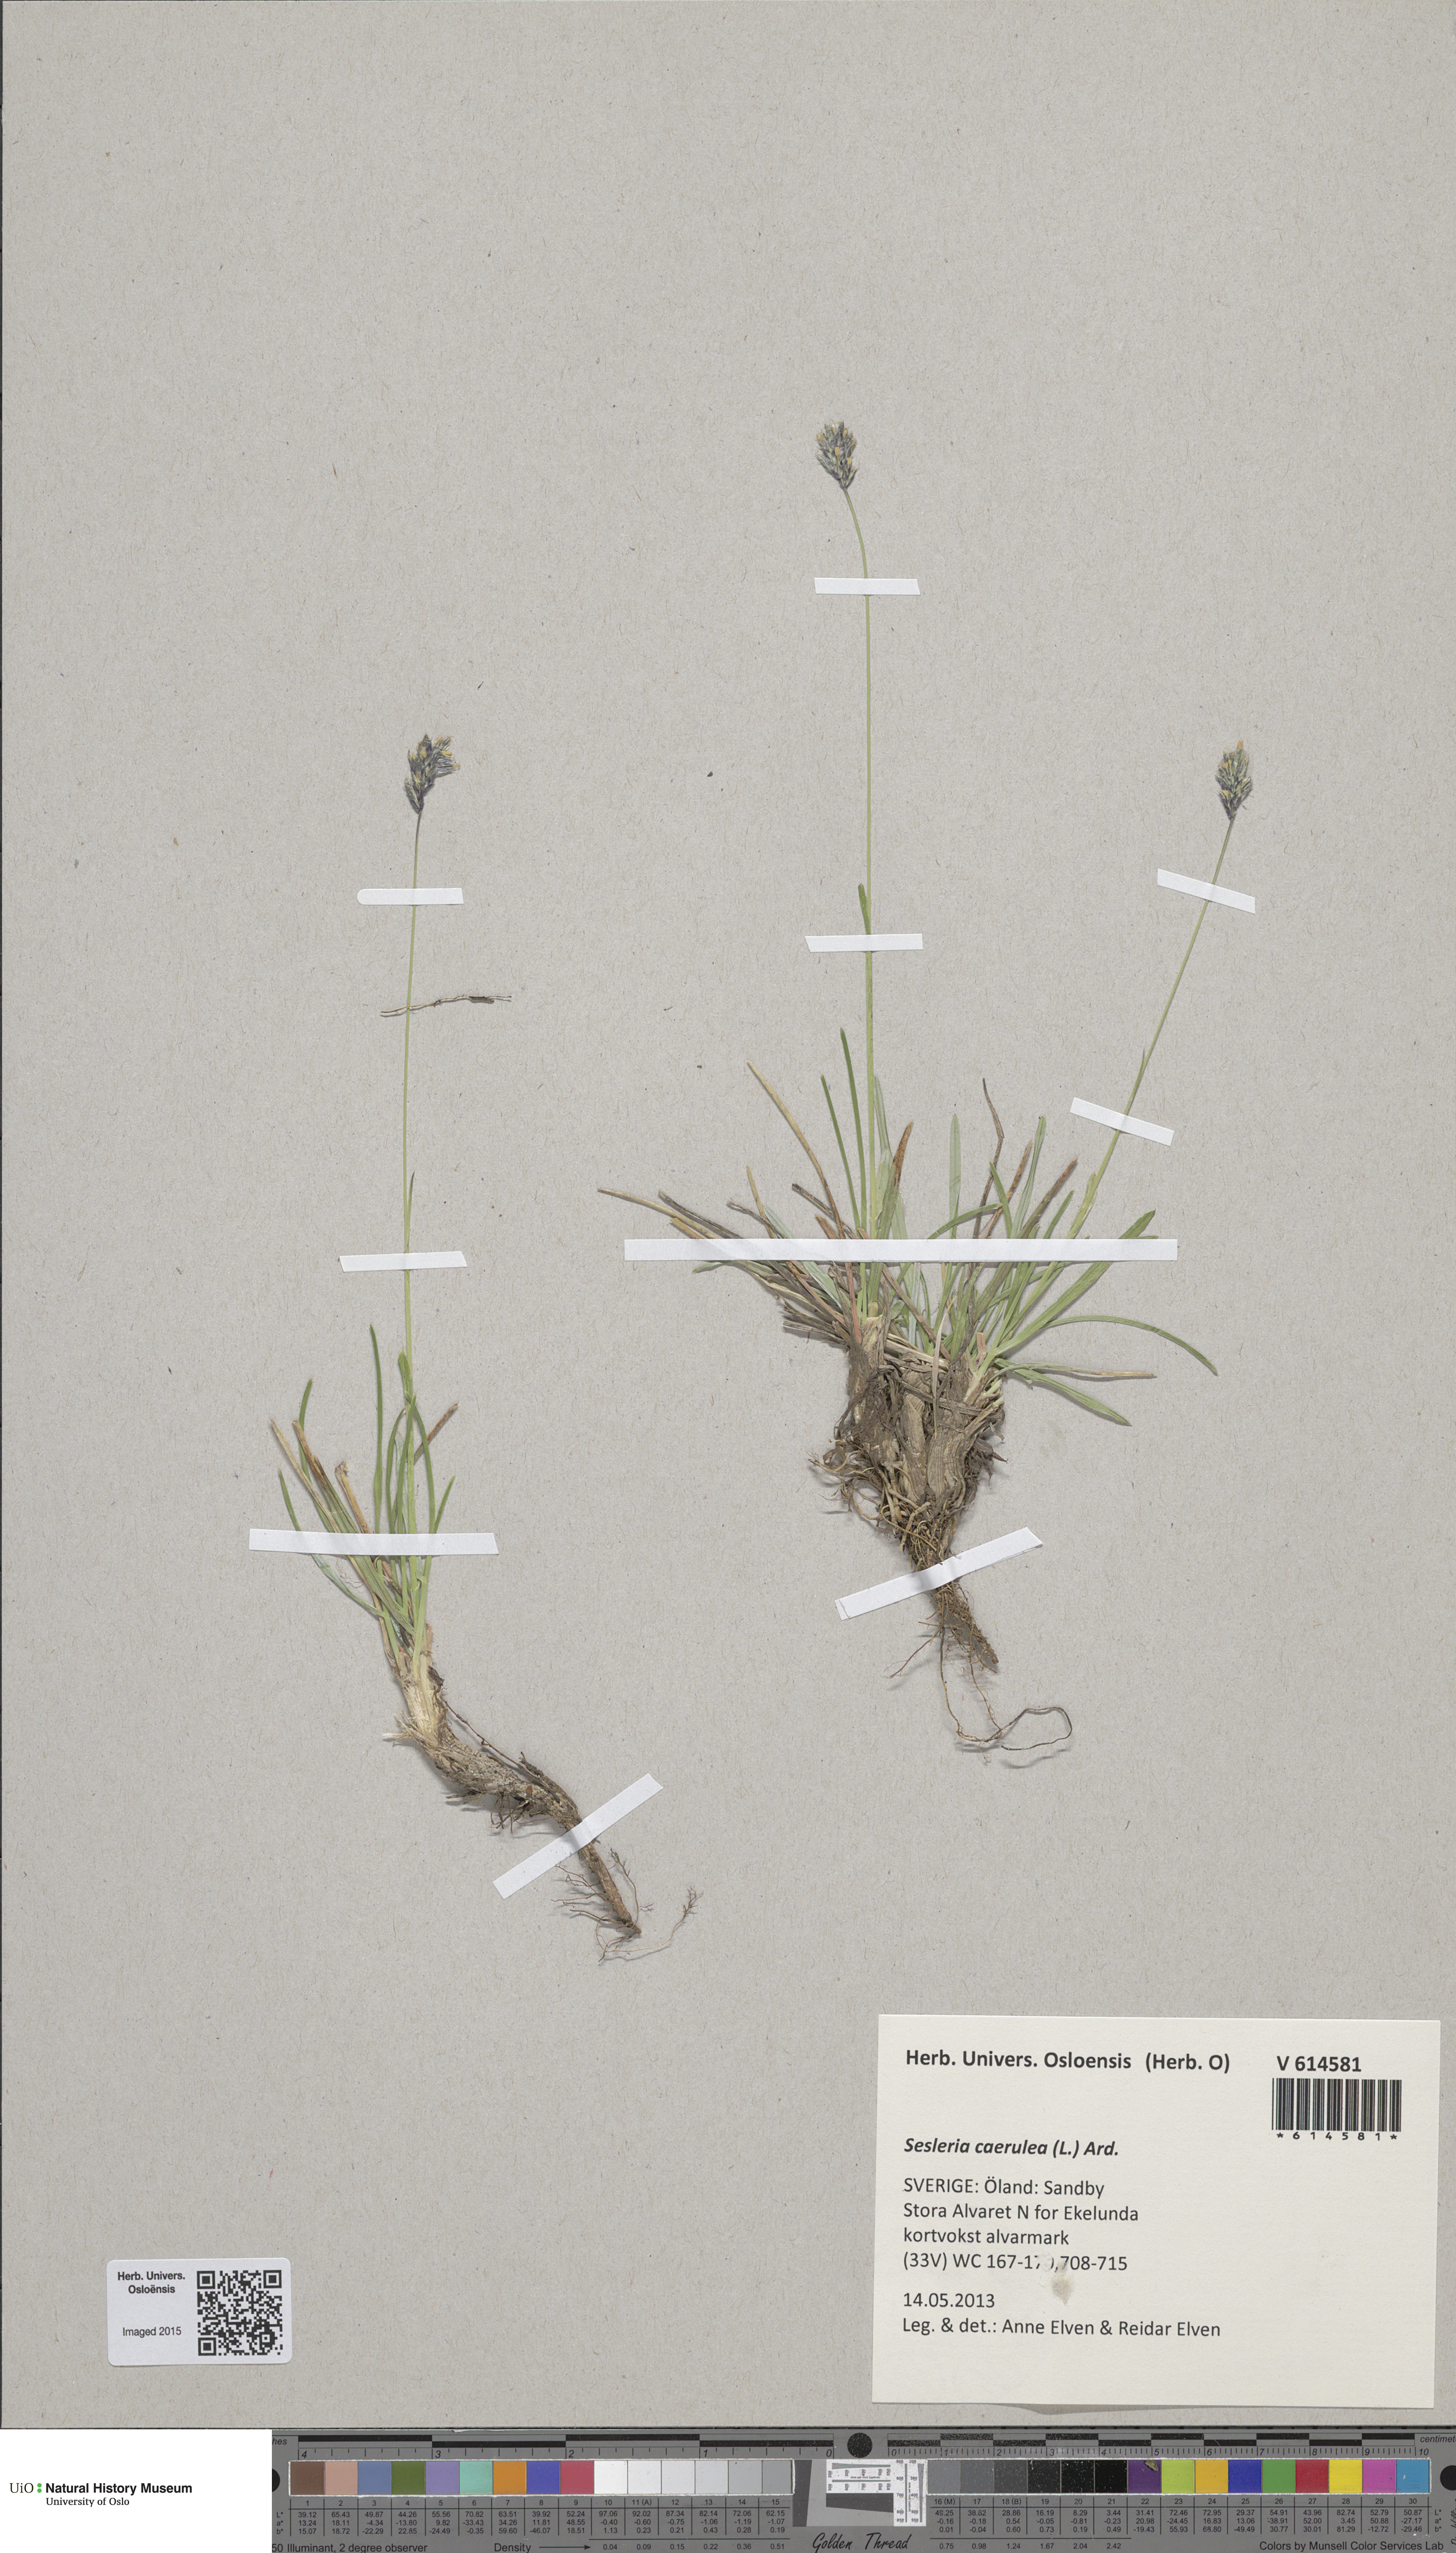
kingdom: Plantae
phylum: Tracheophyta
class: Liliopsida
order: Poales
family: Poaceae
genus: Sesleria
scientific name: Sesleria uliginosa
